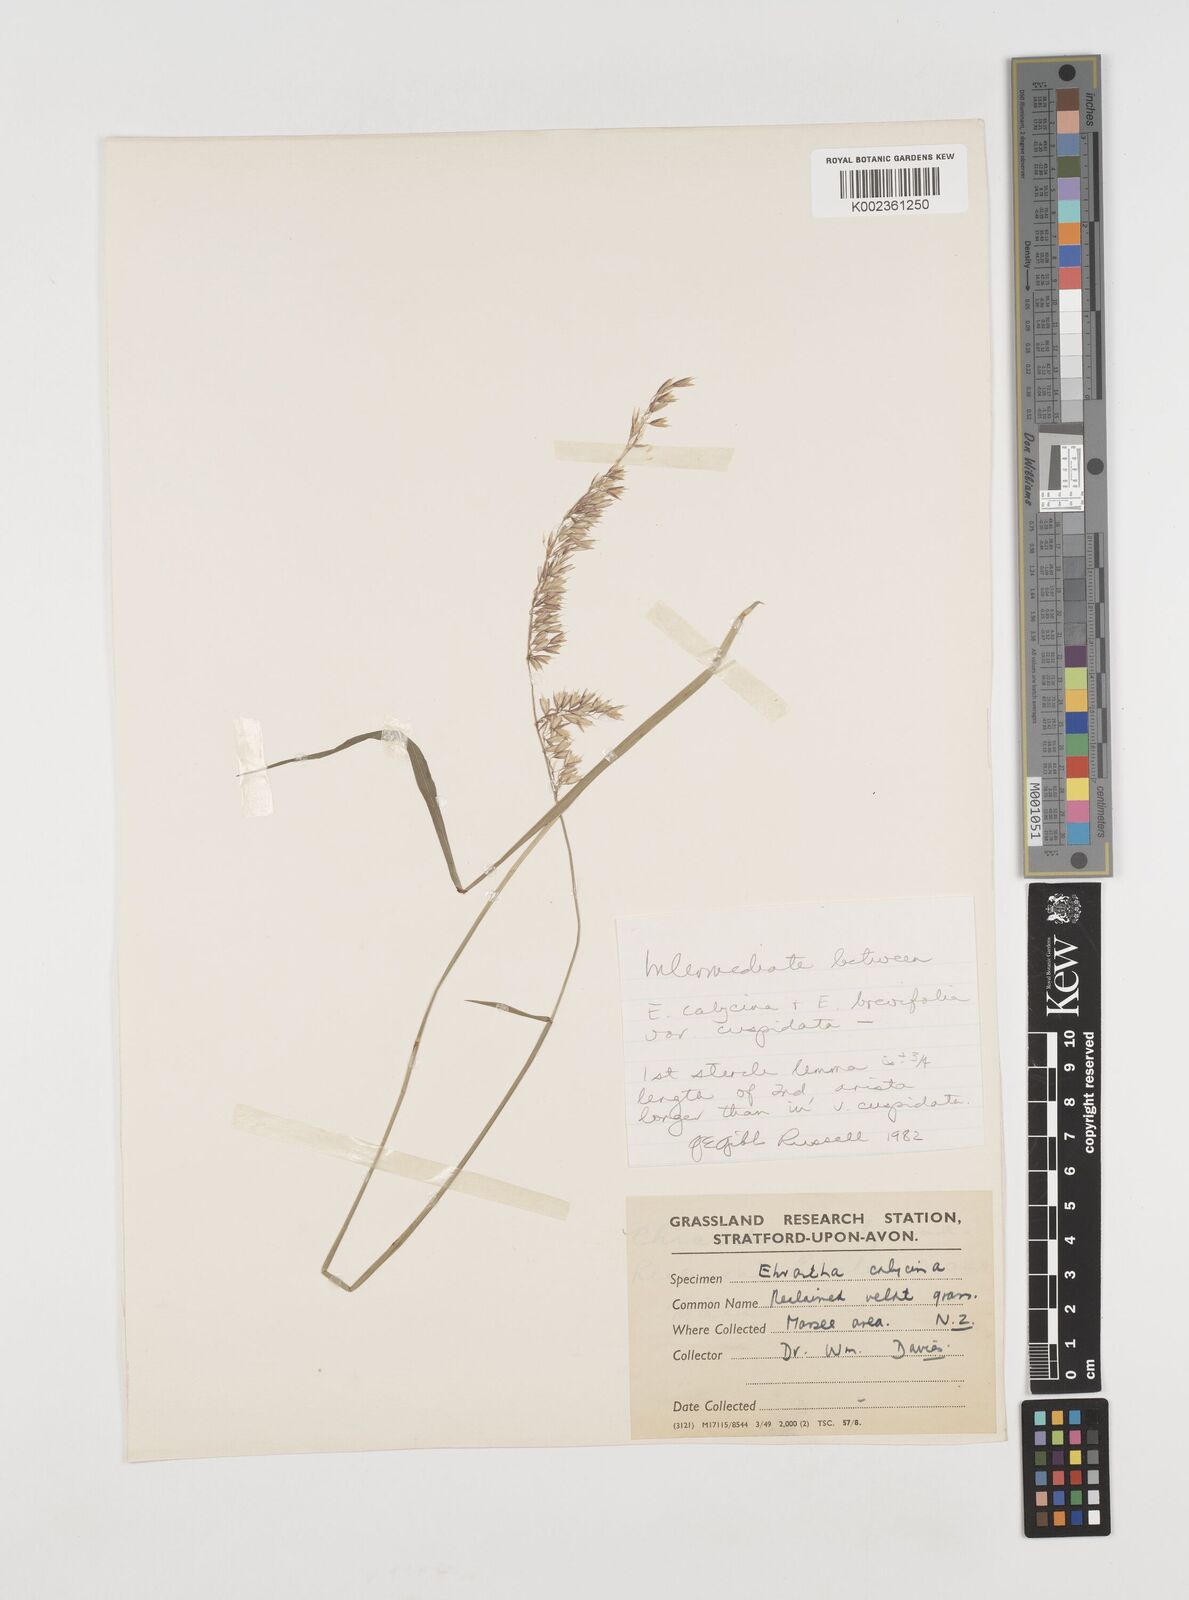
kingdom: Plantae
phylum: Tracheophyta
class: Liliopsida
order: Poales
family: Poaceae
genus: Ehrharta
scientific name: Ehrharta calycina
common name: Perennial veldtgrass
